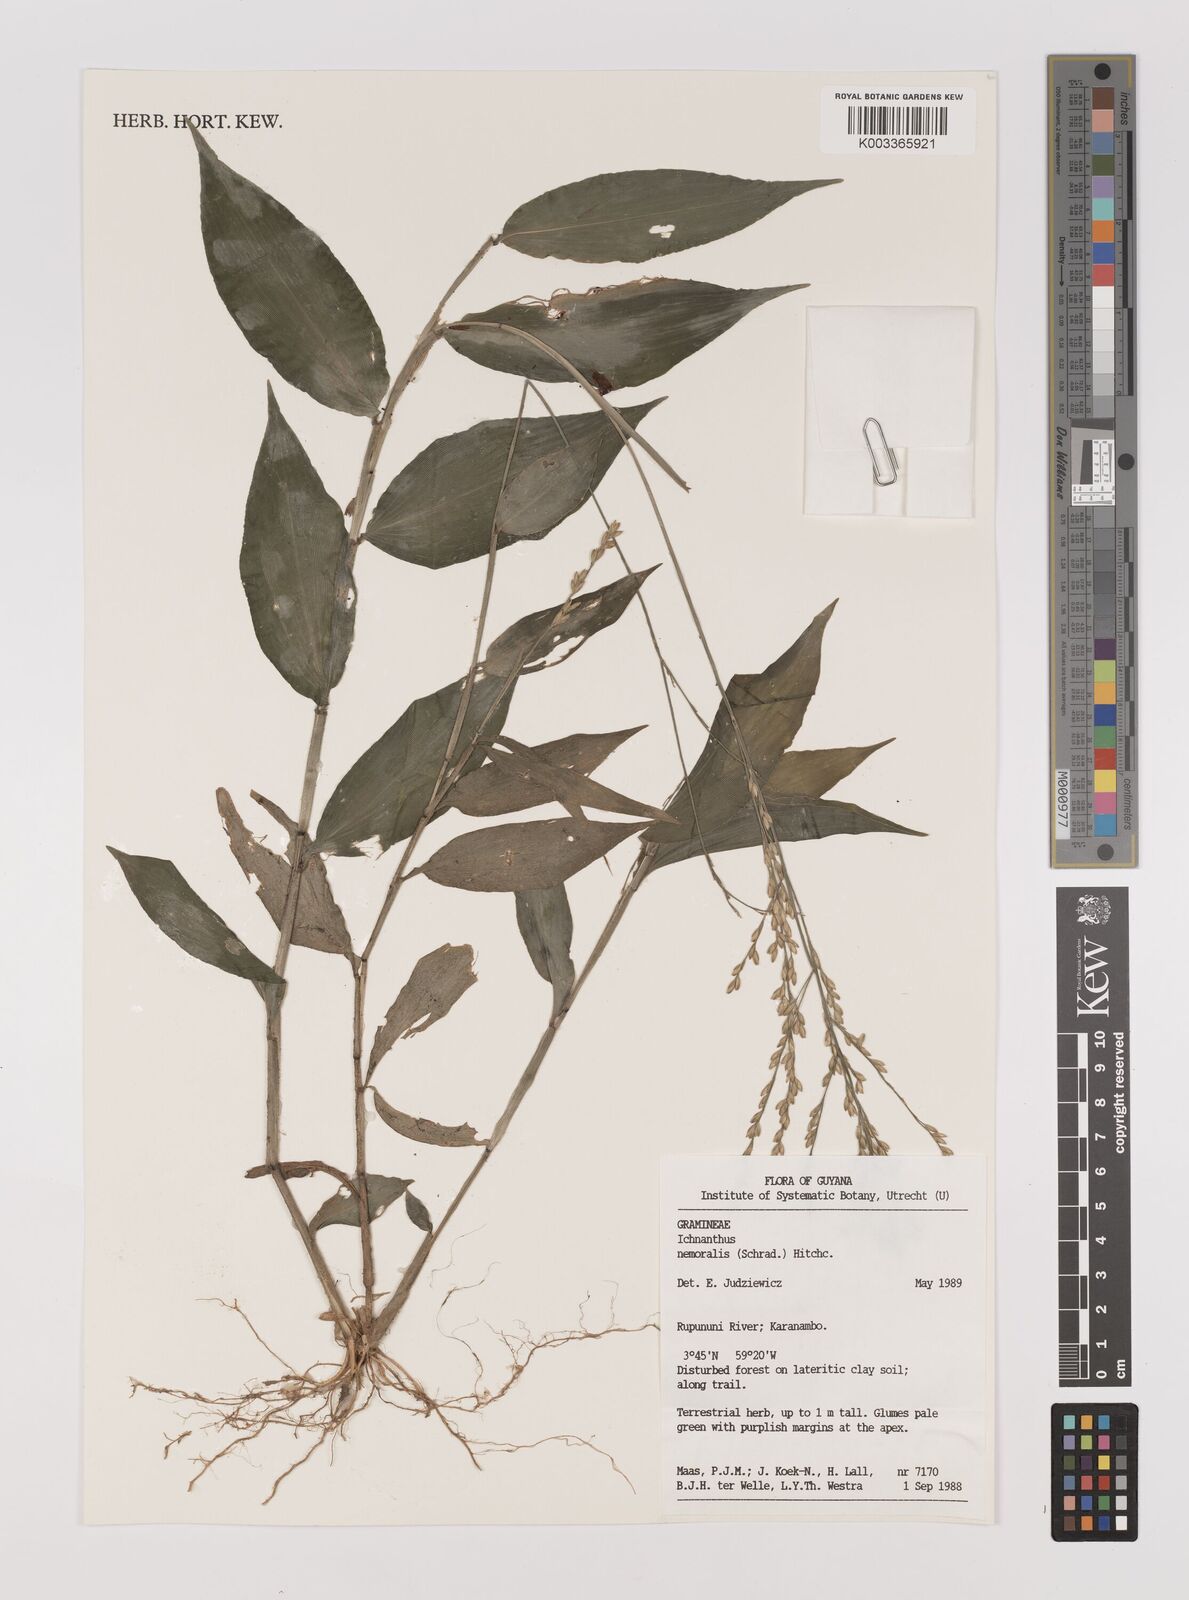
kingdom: Plantae
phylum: Tracheophyta
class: Liliopsida
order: Poales
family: Poaceae
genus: Ichnanthus
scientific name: Ichnanthus nemoralis
